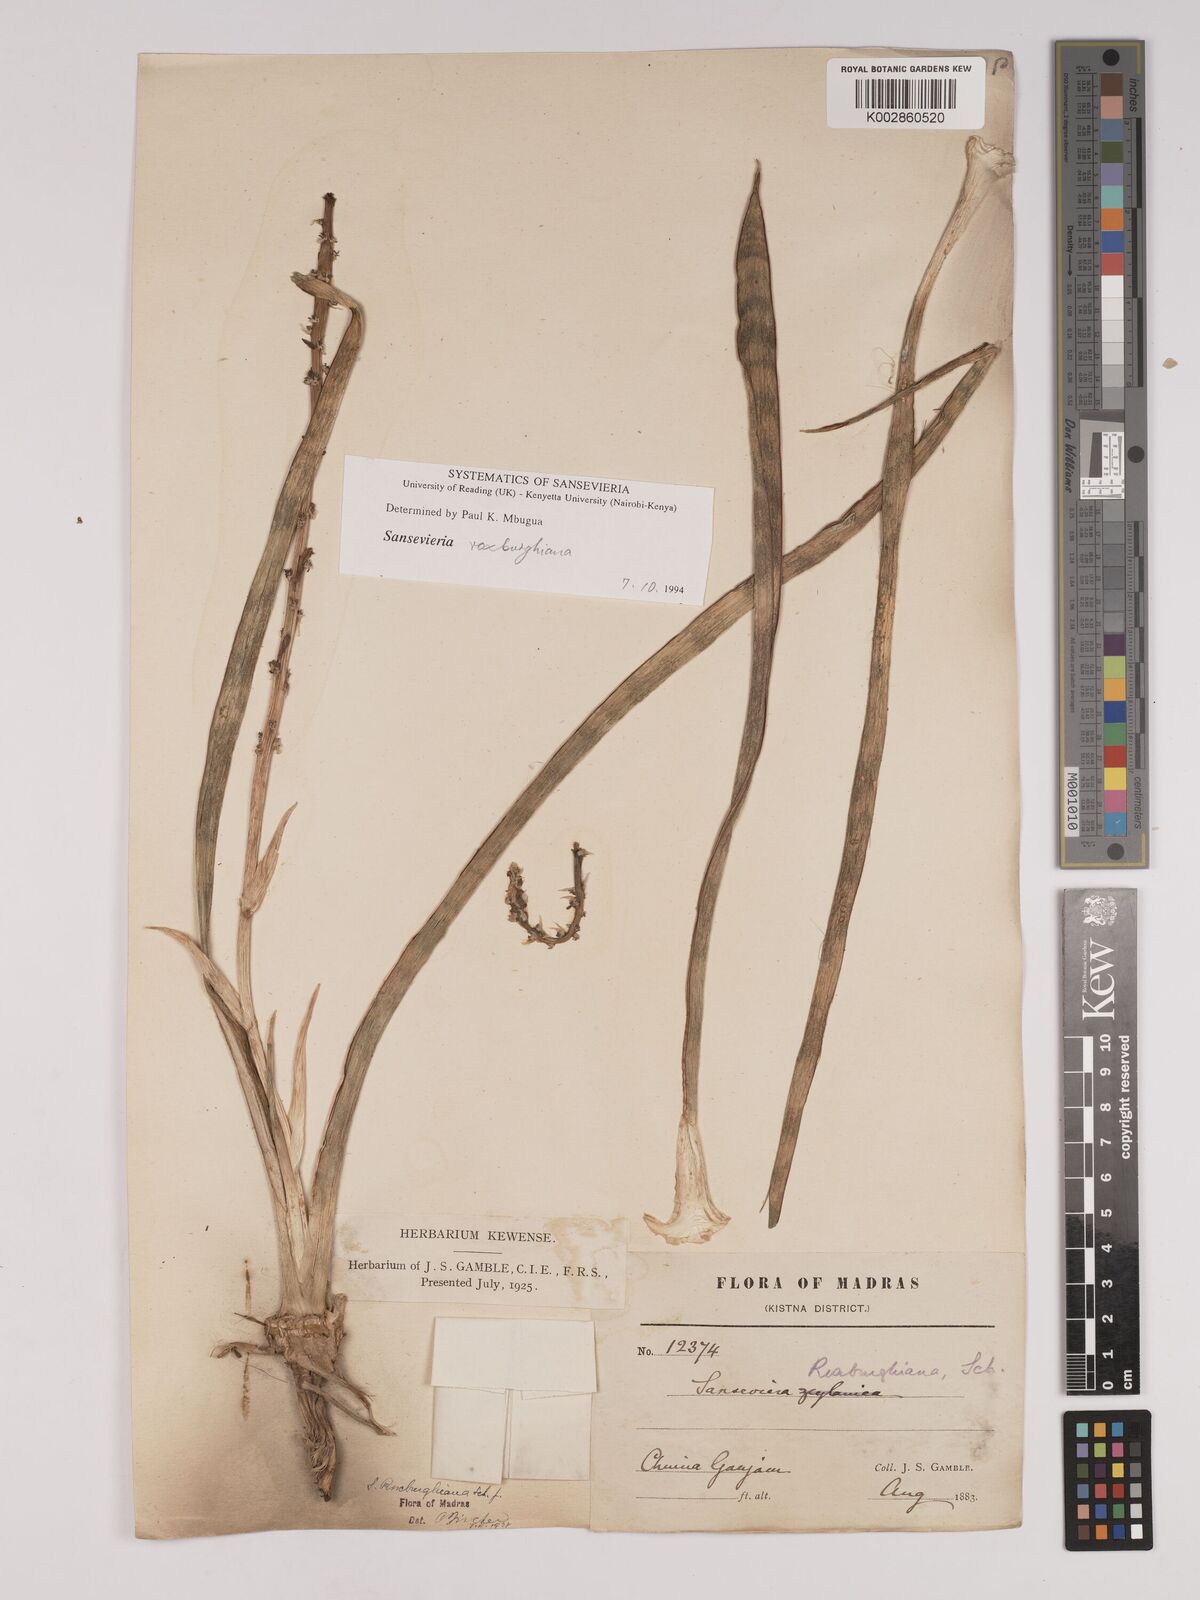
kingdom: Plantae
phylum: Tracheophyta
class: Liliopsida
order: Asparagales
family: Asparagaceae
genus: Dracaena
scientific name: Dracaena roxburghiana
